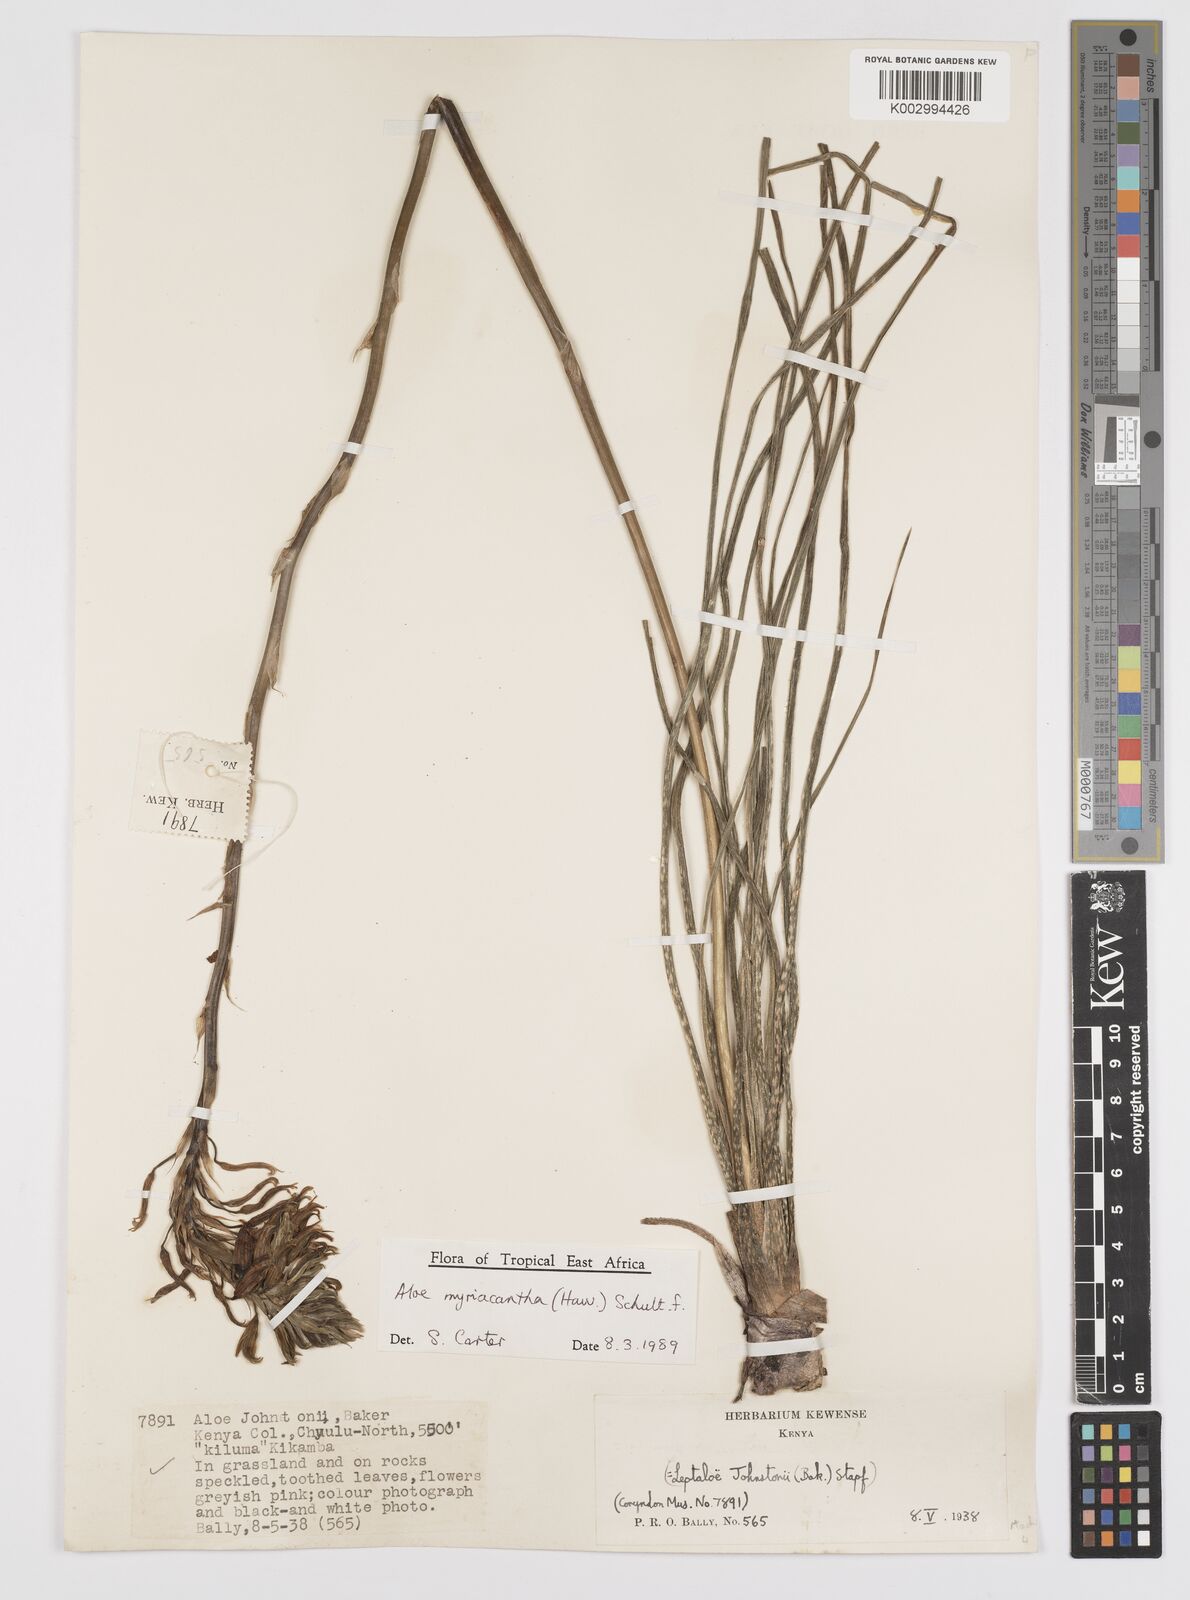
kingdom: Plantae
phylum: Tracheophyta
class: Liliopsida
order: Asparagales
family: Asphodelaceae
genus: Aloe
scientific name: Aloe myriacantha
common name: Grass aloe
